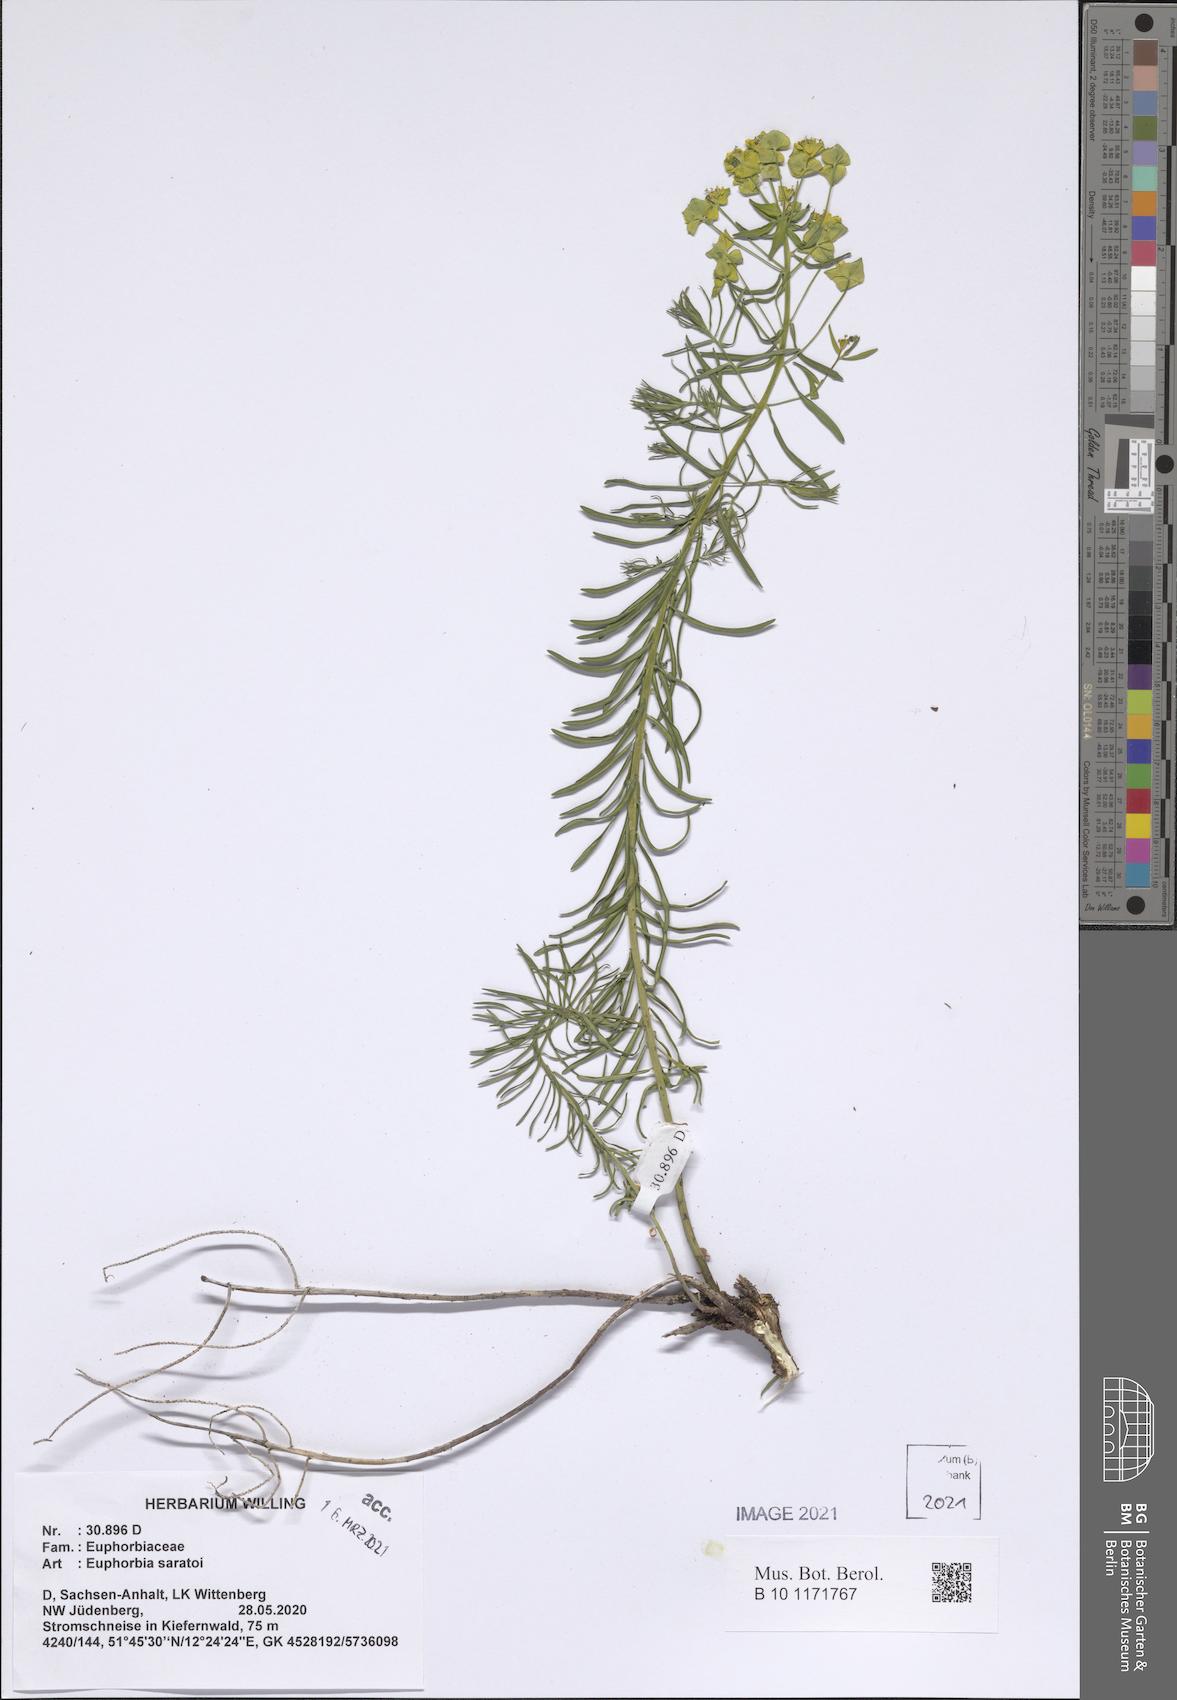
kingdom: Plantae
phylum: Tracheophyta
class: Magnoliopsida
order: Malpighiales
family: Euphorbiaceae
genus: Euphorbia
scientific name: Euphorbia saratoi
